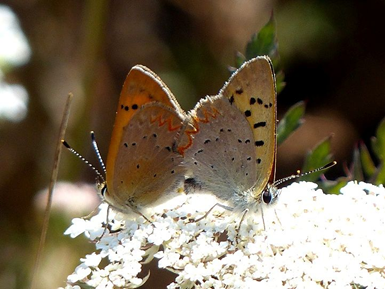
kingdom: Animalia
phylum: Arthropoda
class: Insecta
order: Lepidoptera
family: Sesiidae
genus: Sesia
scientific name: Sesia Lycaena helloides
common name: Purplish Copper
